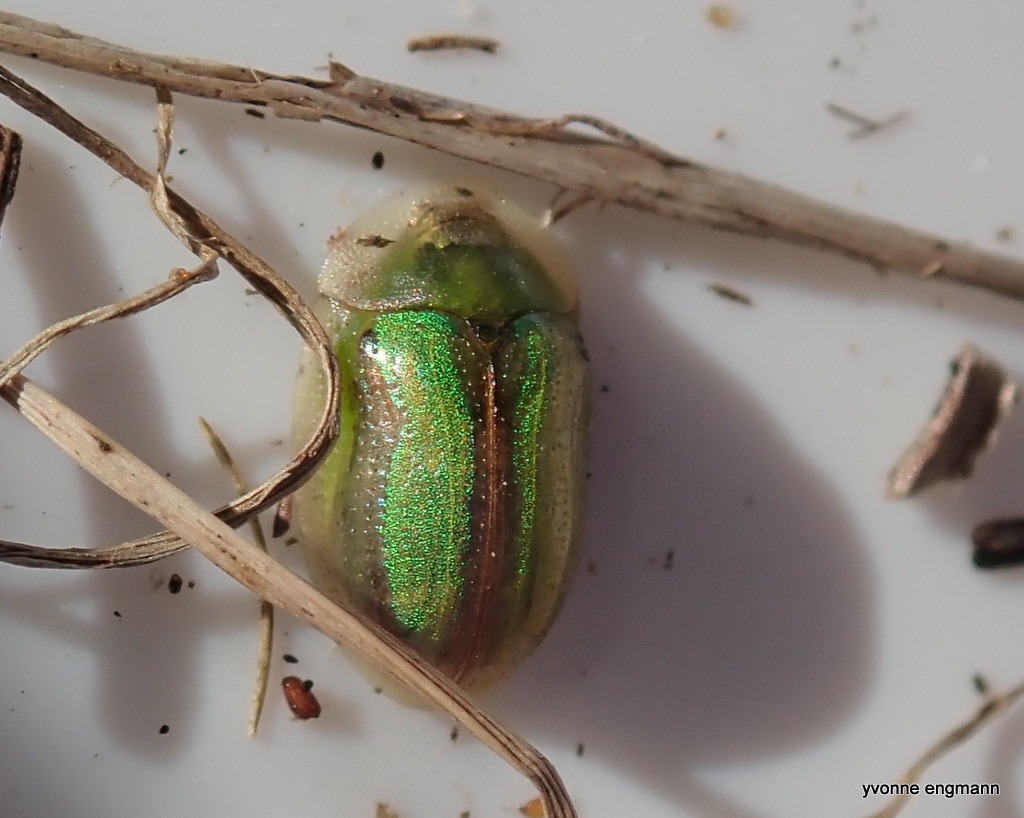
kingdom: Animalia
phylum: Arthropoda
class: Insecta
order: Coleoptera
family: Chrysomelidae
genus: Cassida
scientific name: Cassida vittata
